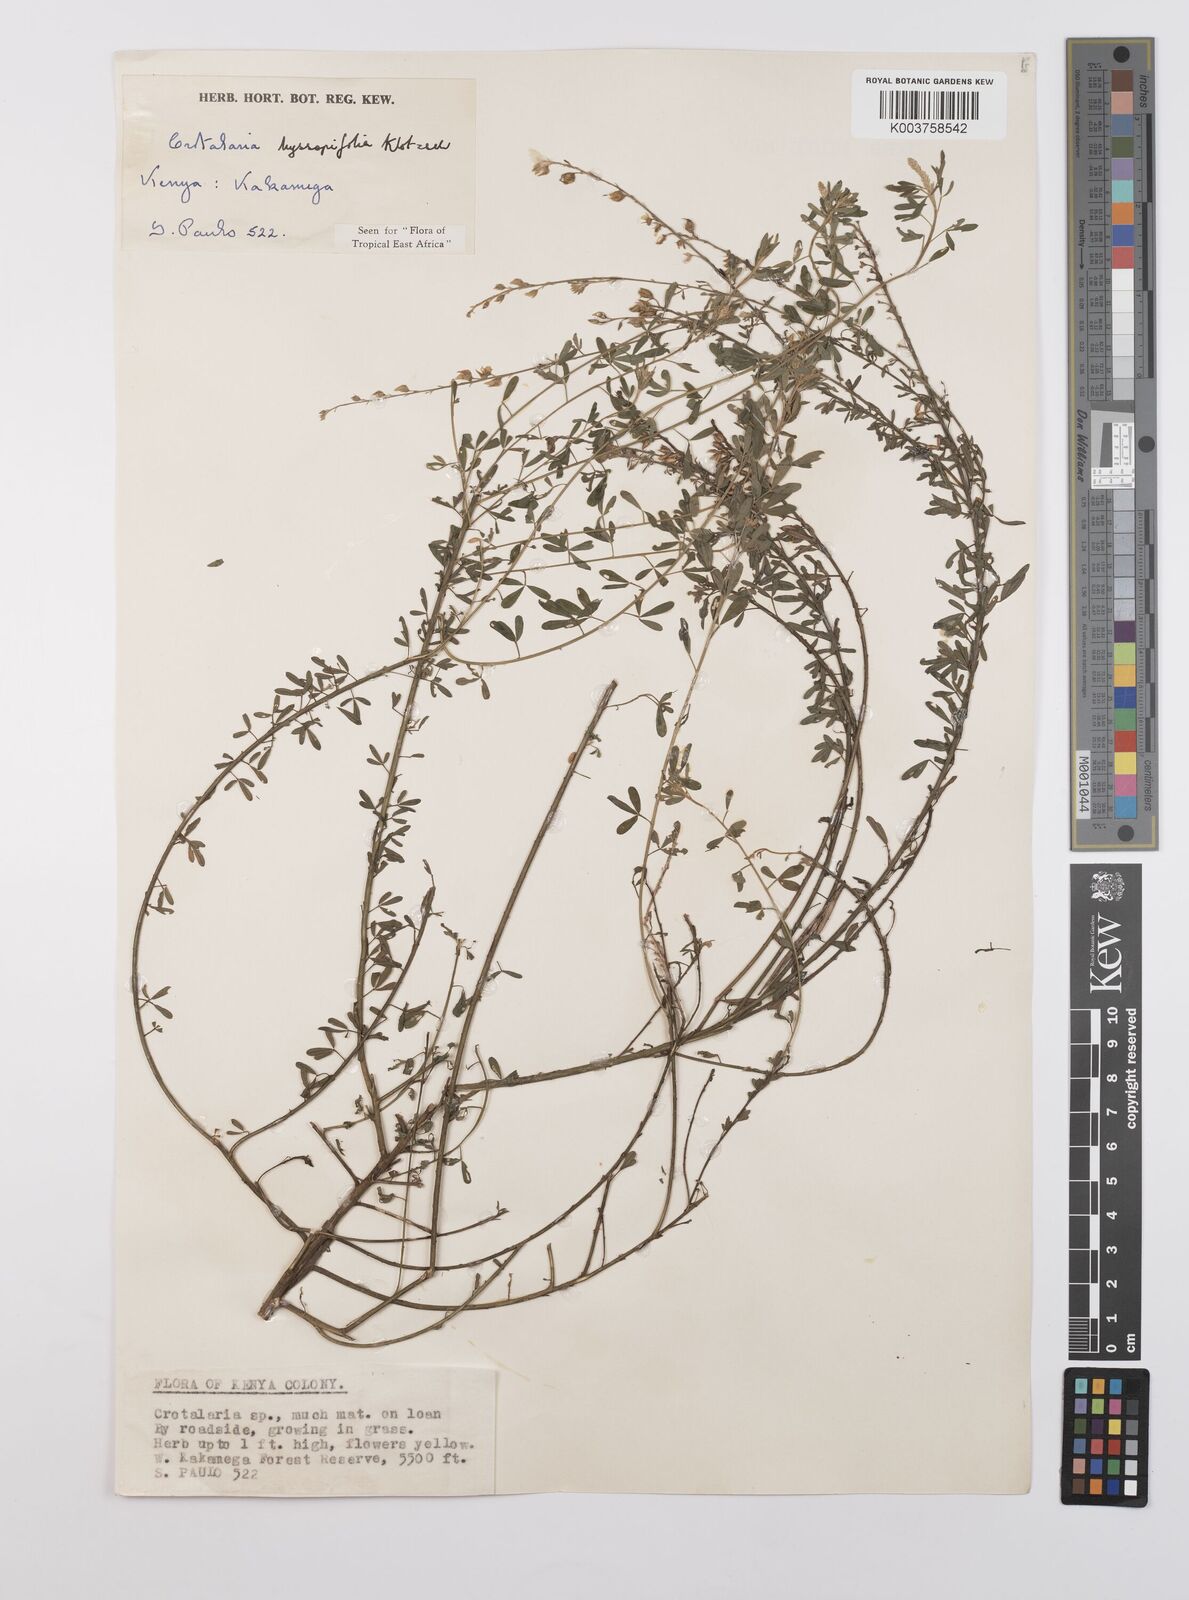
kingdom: Plantae
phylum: Tracheophyta
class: Magnoliopsida
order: Fabales
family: Fabaceae
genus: Crotalaria
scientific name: Crotalaria hyssopifolia
